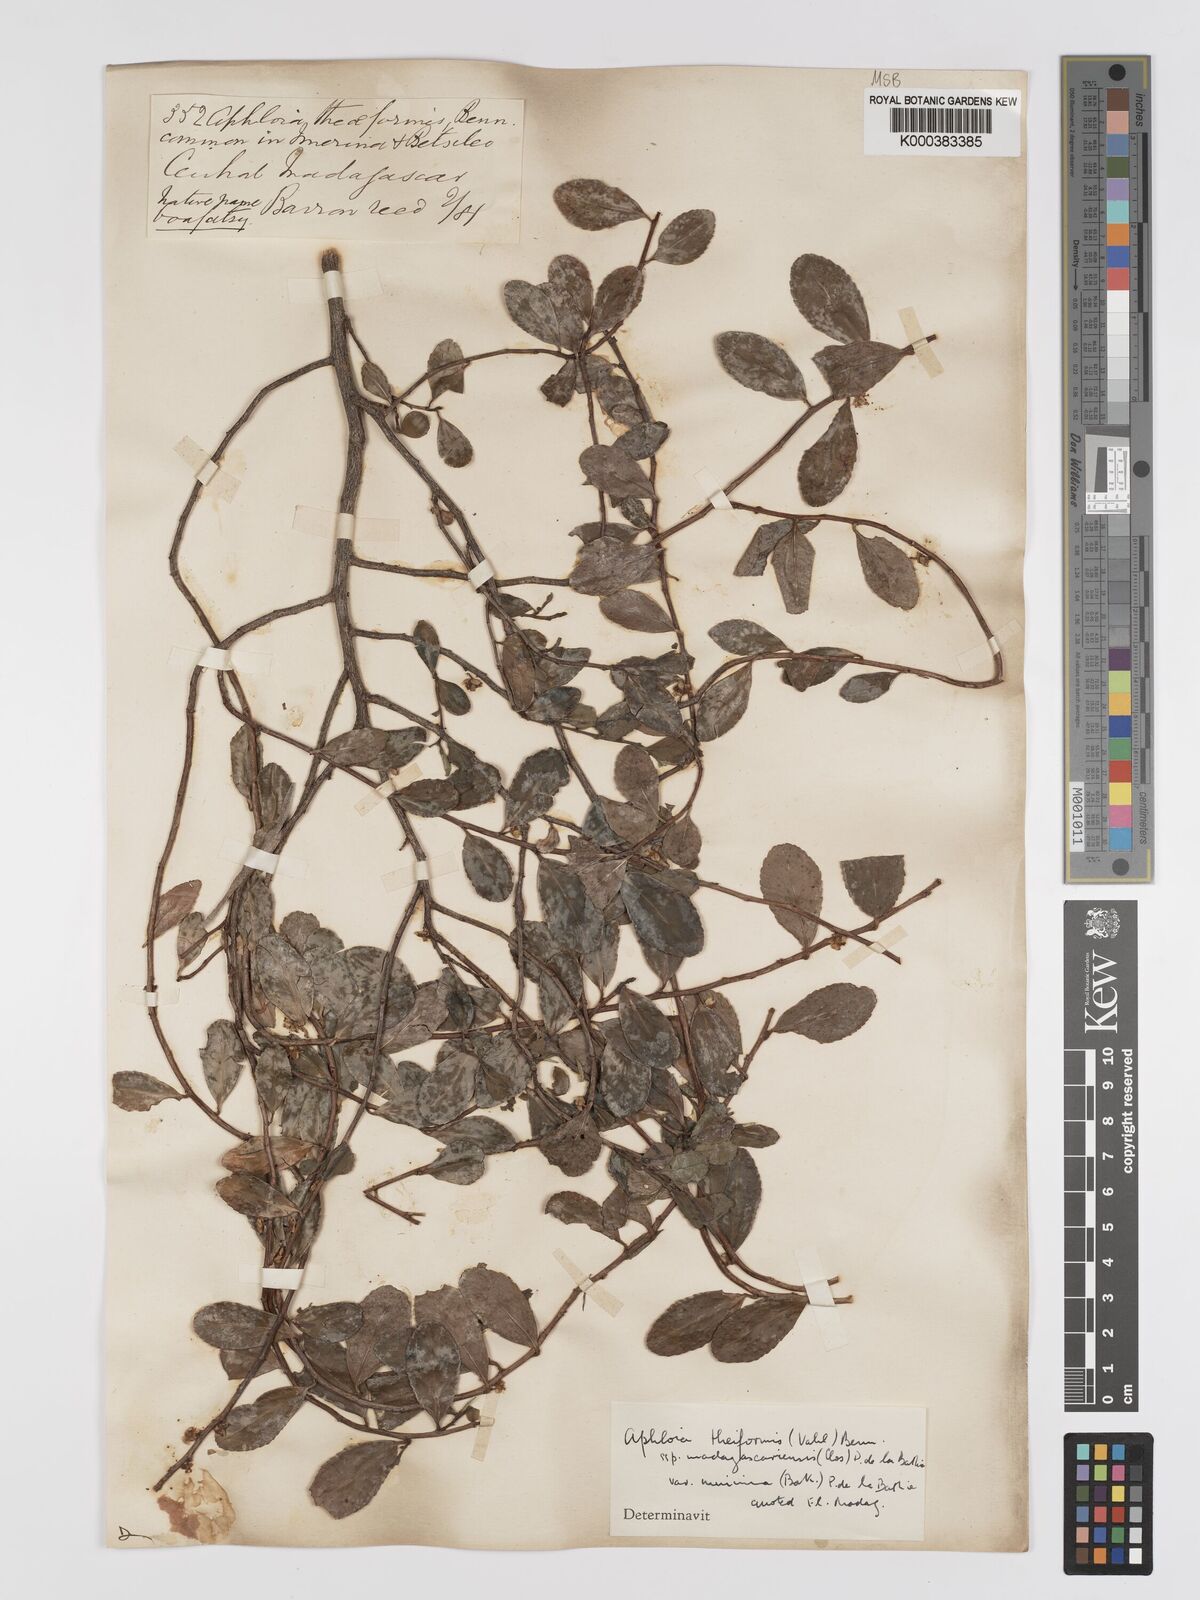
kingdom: Plantae
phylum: Tracheophyta
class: Magnoliopsida
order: Crossosomatales
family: Aphloiaceae
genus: Aphloia
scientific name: Aphloia theiformis
